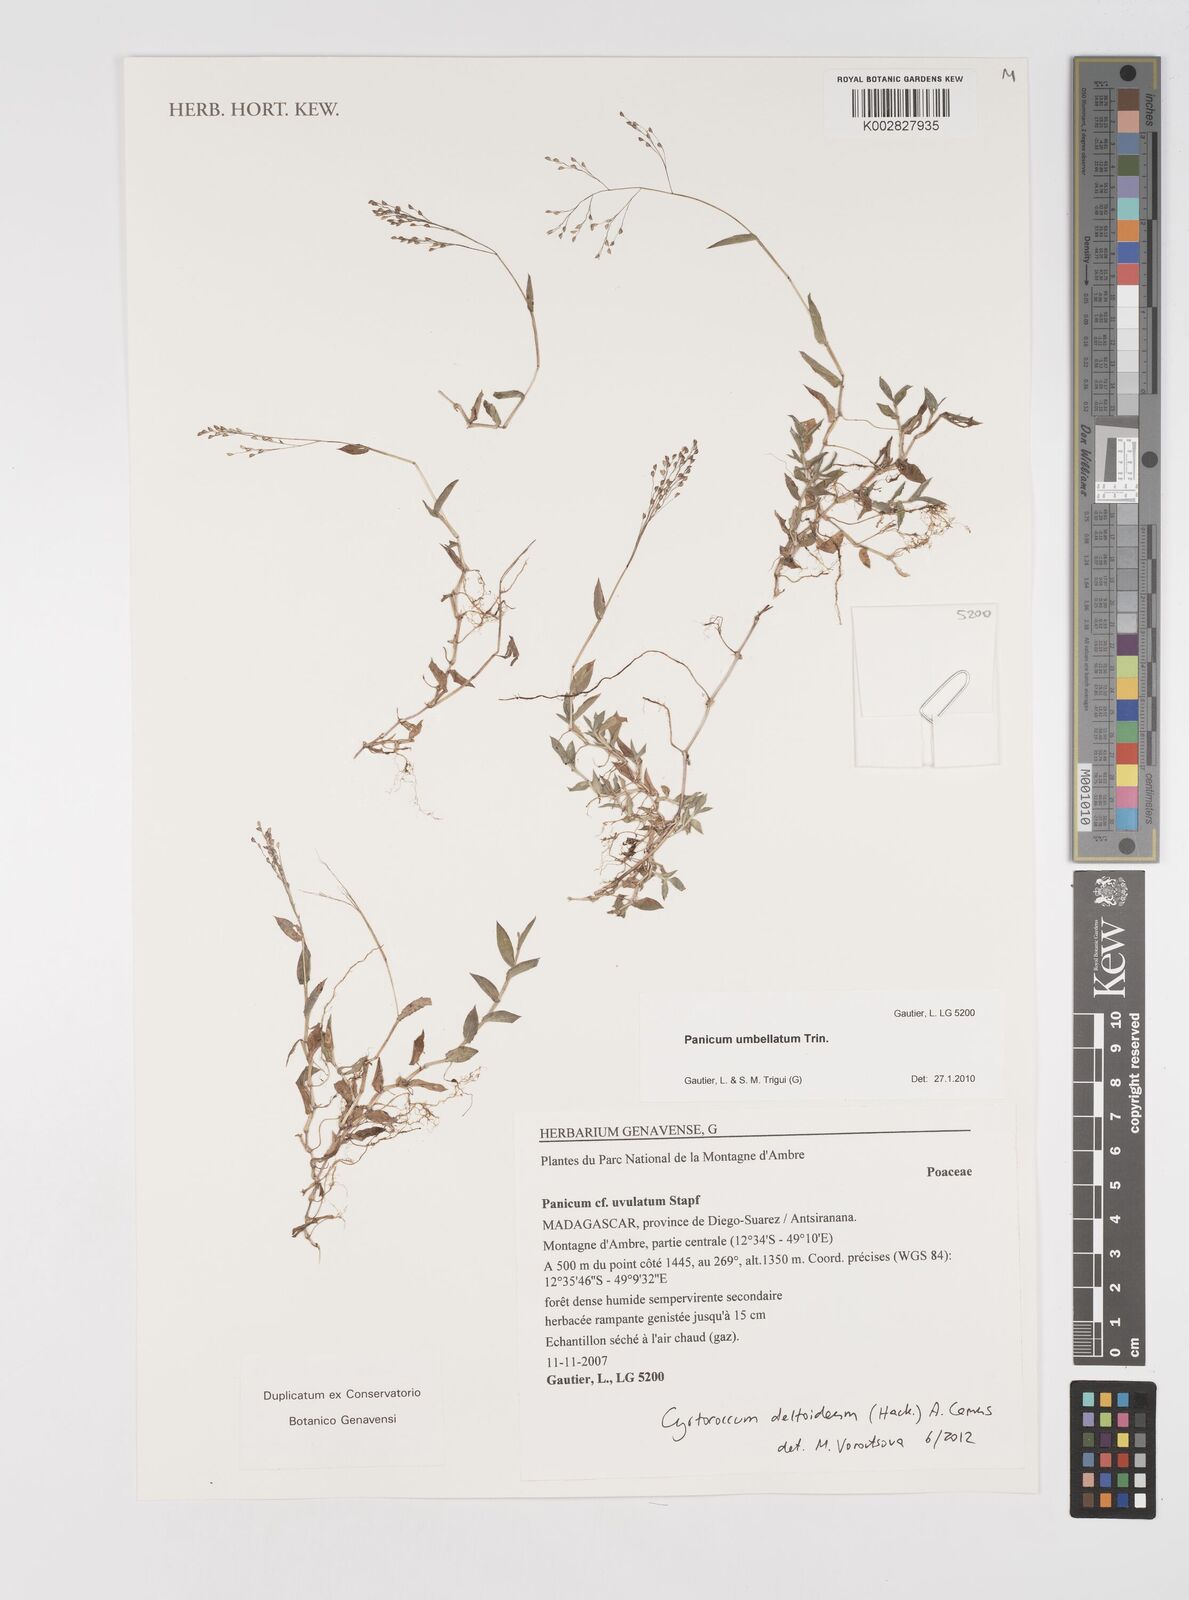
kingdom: Plantae
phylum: Tracheophyta
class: Liliopsida
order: Poales
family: Poaceae
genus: Cyrtococcum
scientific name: Cyrtococcum deltoideum
